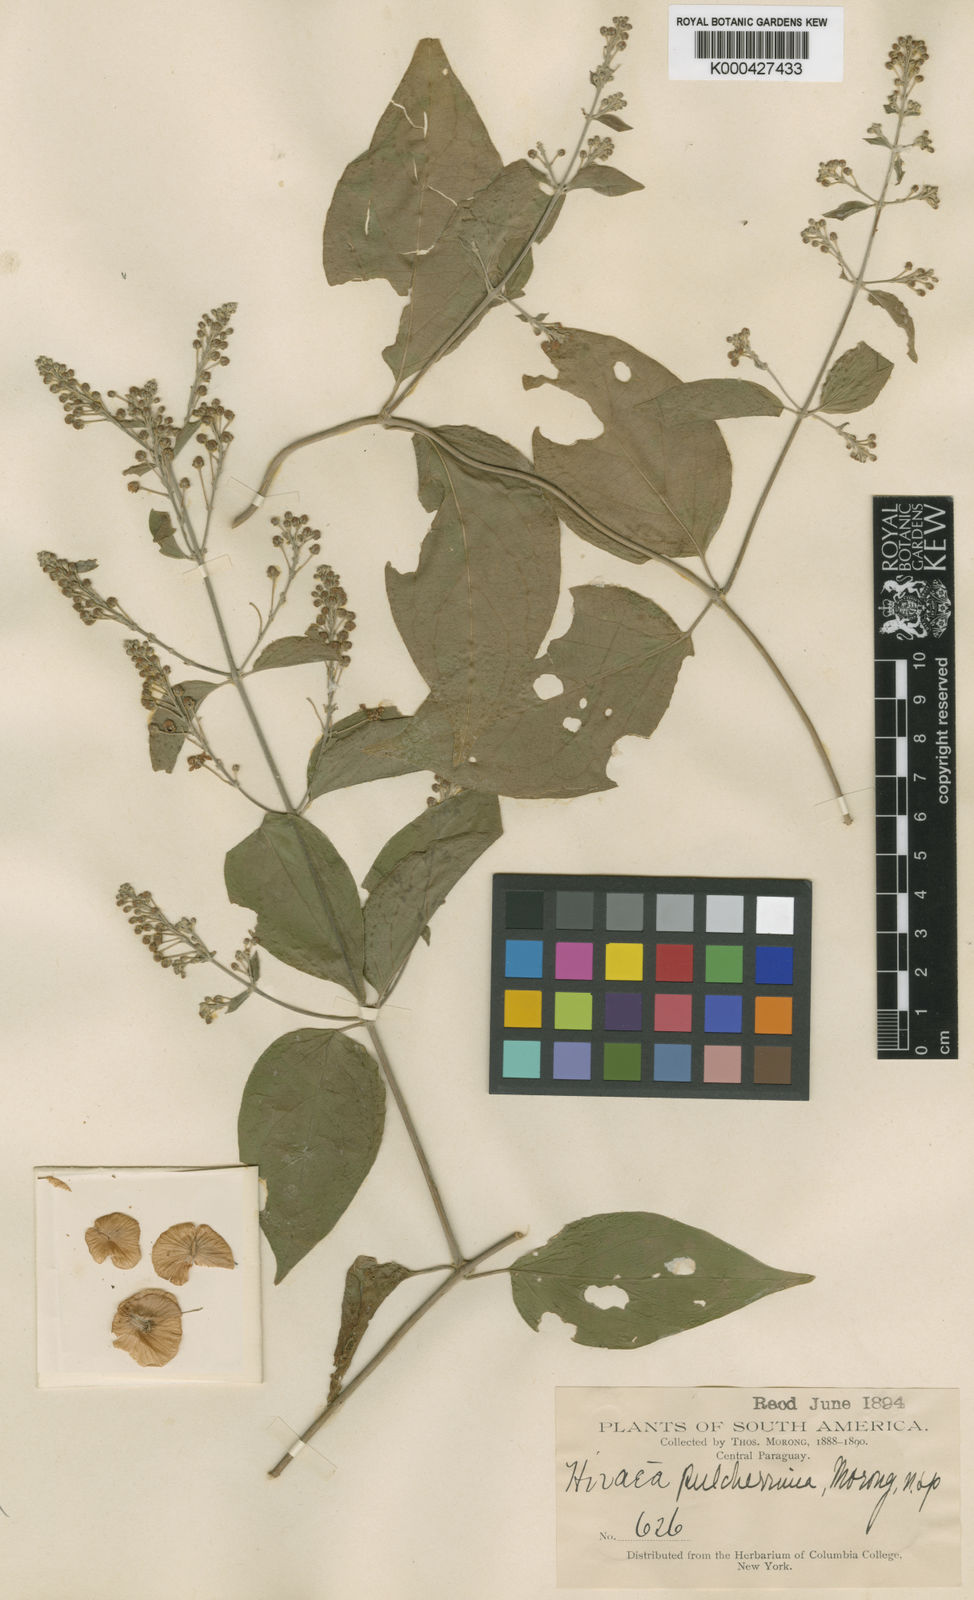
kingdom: Plantae
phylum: Tracheophyta
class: Magnoliopsida
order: Malpighiales
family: Malpighiaceae
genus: Mascagnia
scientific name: Mascagnia divaricata
